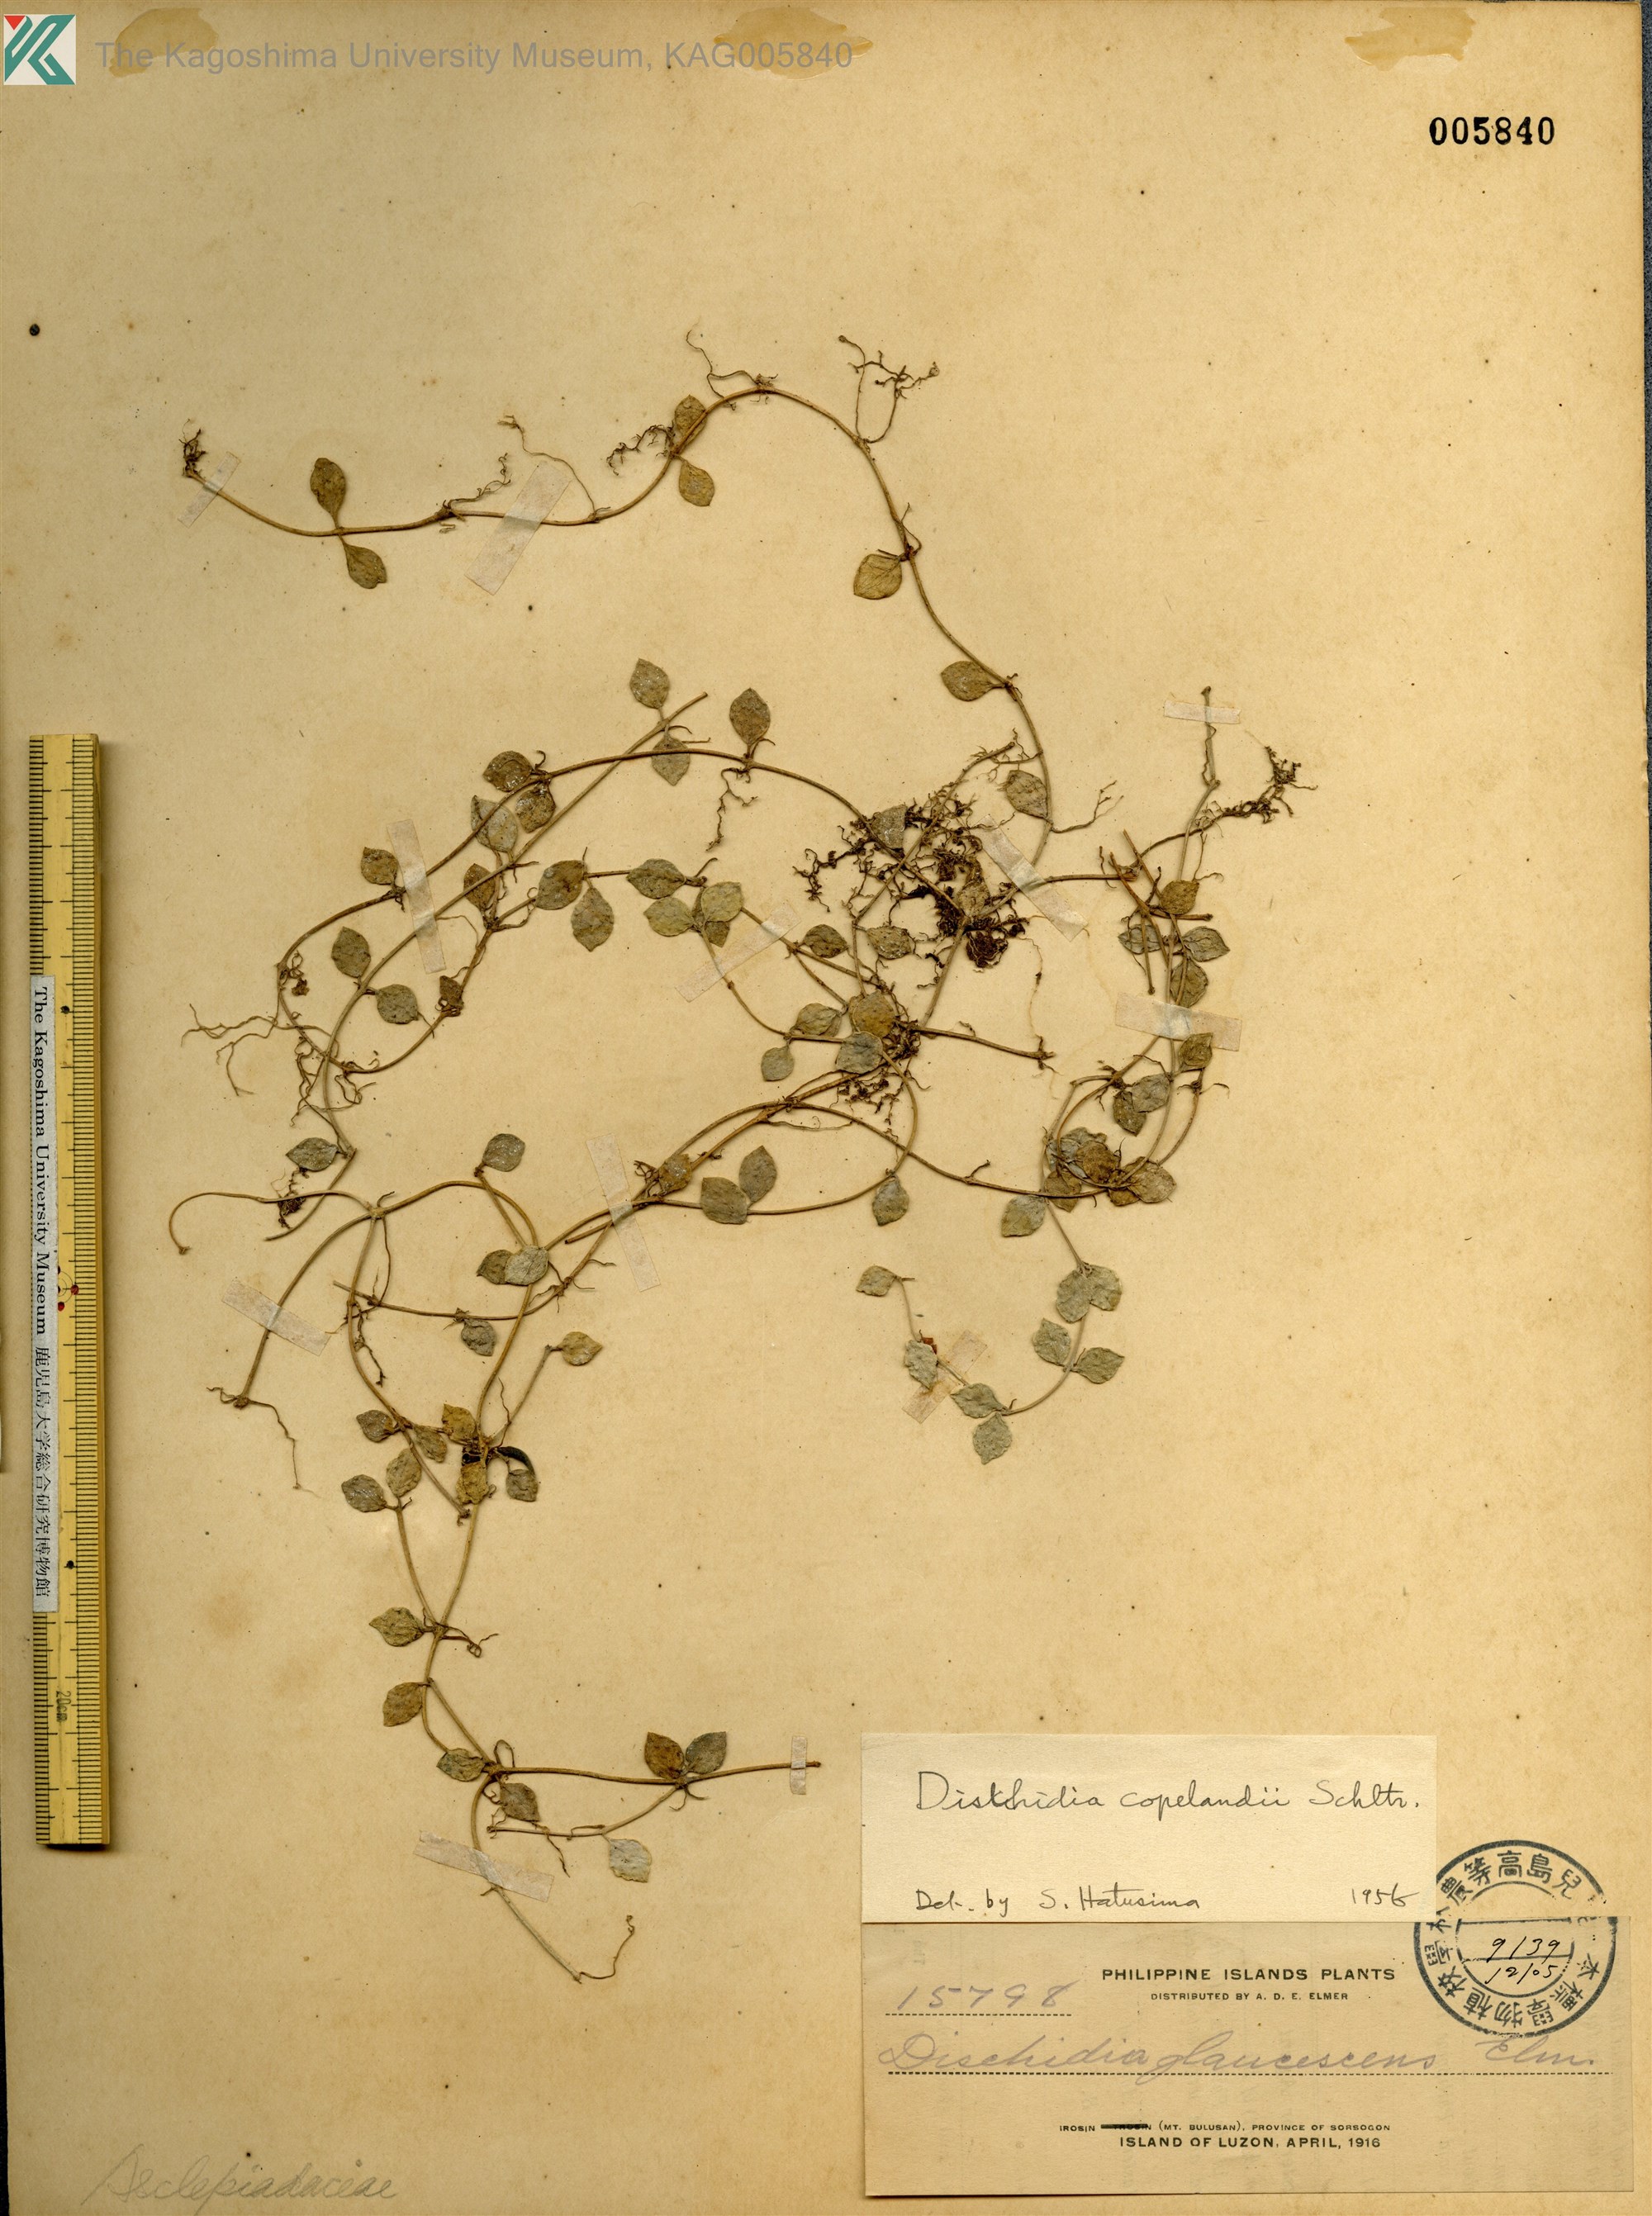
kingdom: Plantae
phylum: Tracheophyta
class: Magnoliopsida
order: Gentianales
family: Apocynaceae
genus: Dischidia
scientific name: Dischidia nummularia
